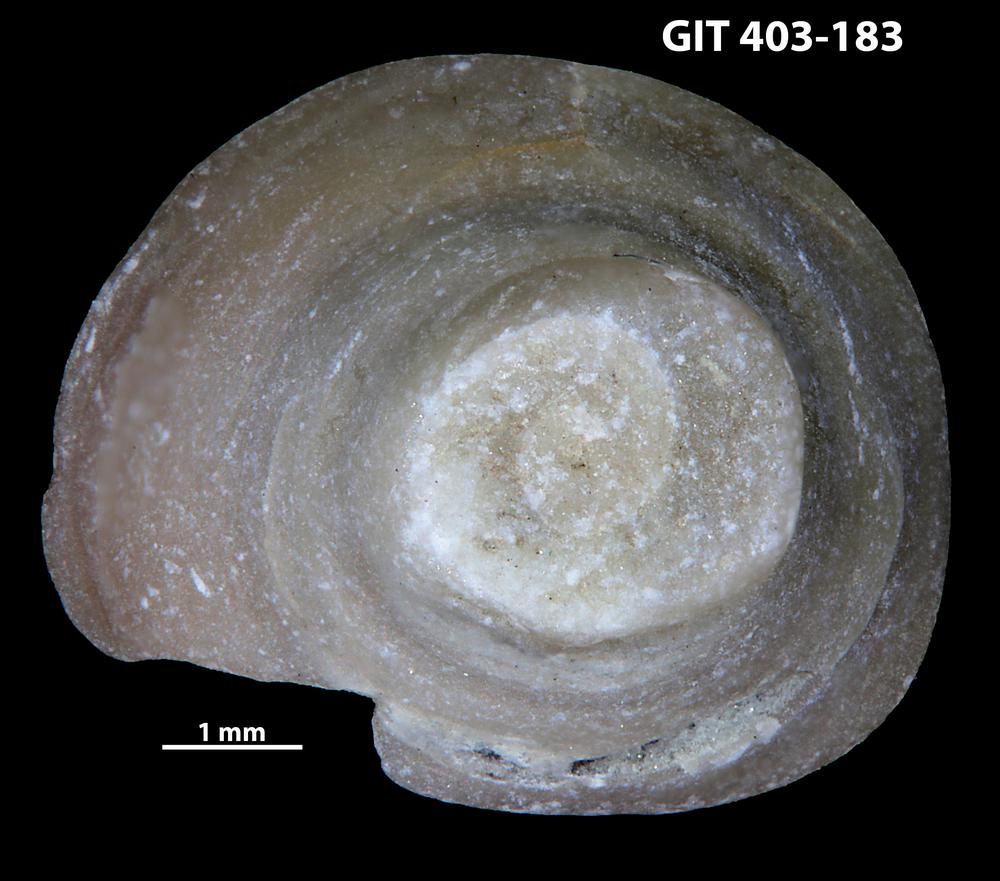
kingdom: Animalia
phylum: Mollusca
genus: Anticalyptraea
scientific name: Anticalyptraea westergaardi
